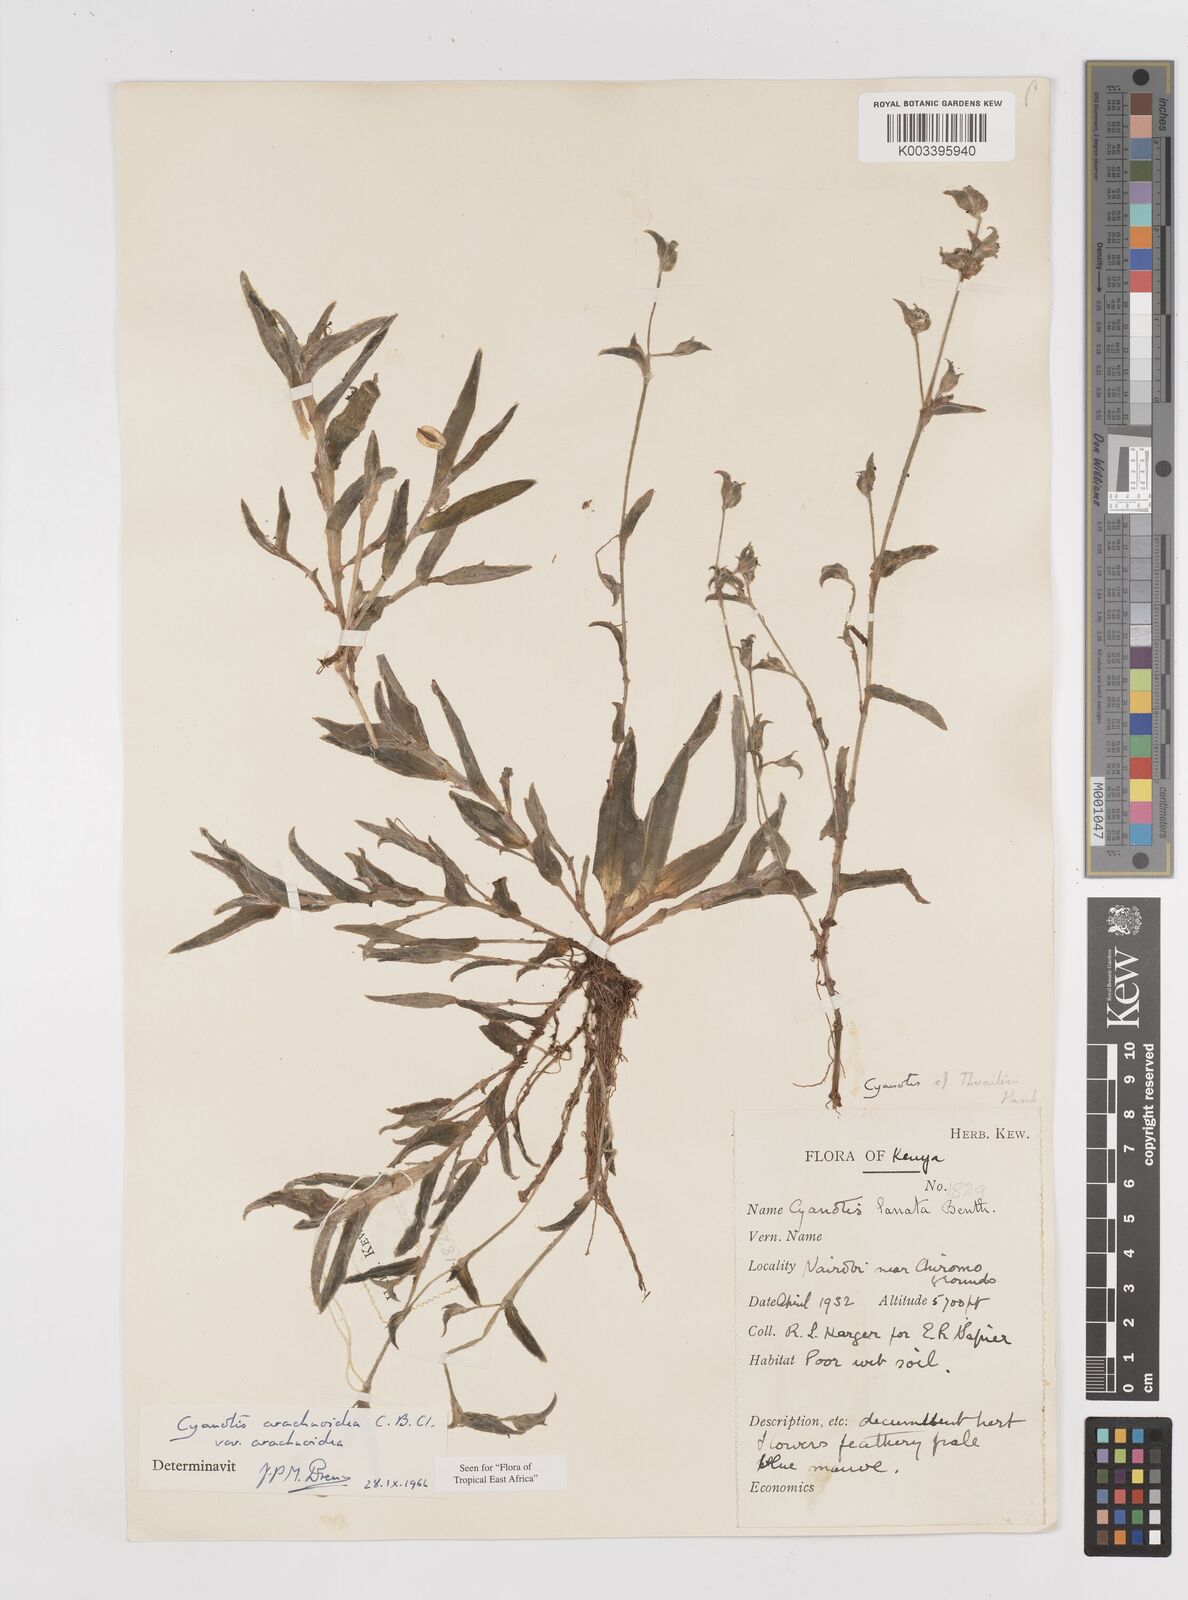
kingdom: Plantae
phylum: Tracheophyta
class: Liliopsida
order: Commelinales
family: Commelinaceae
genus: Cyanotis
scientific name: Cyanotis arachnoidea
